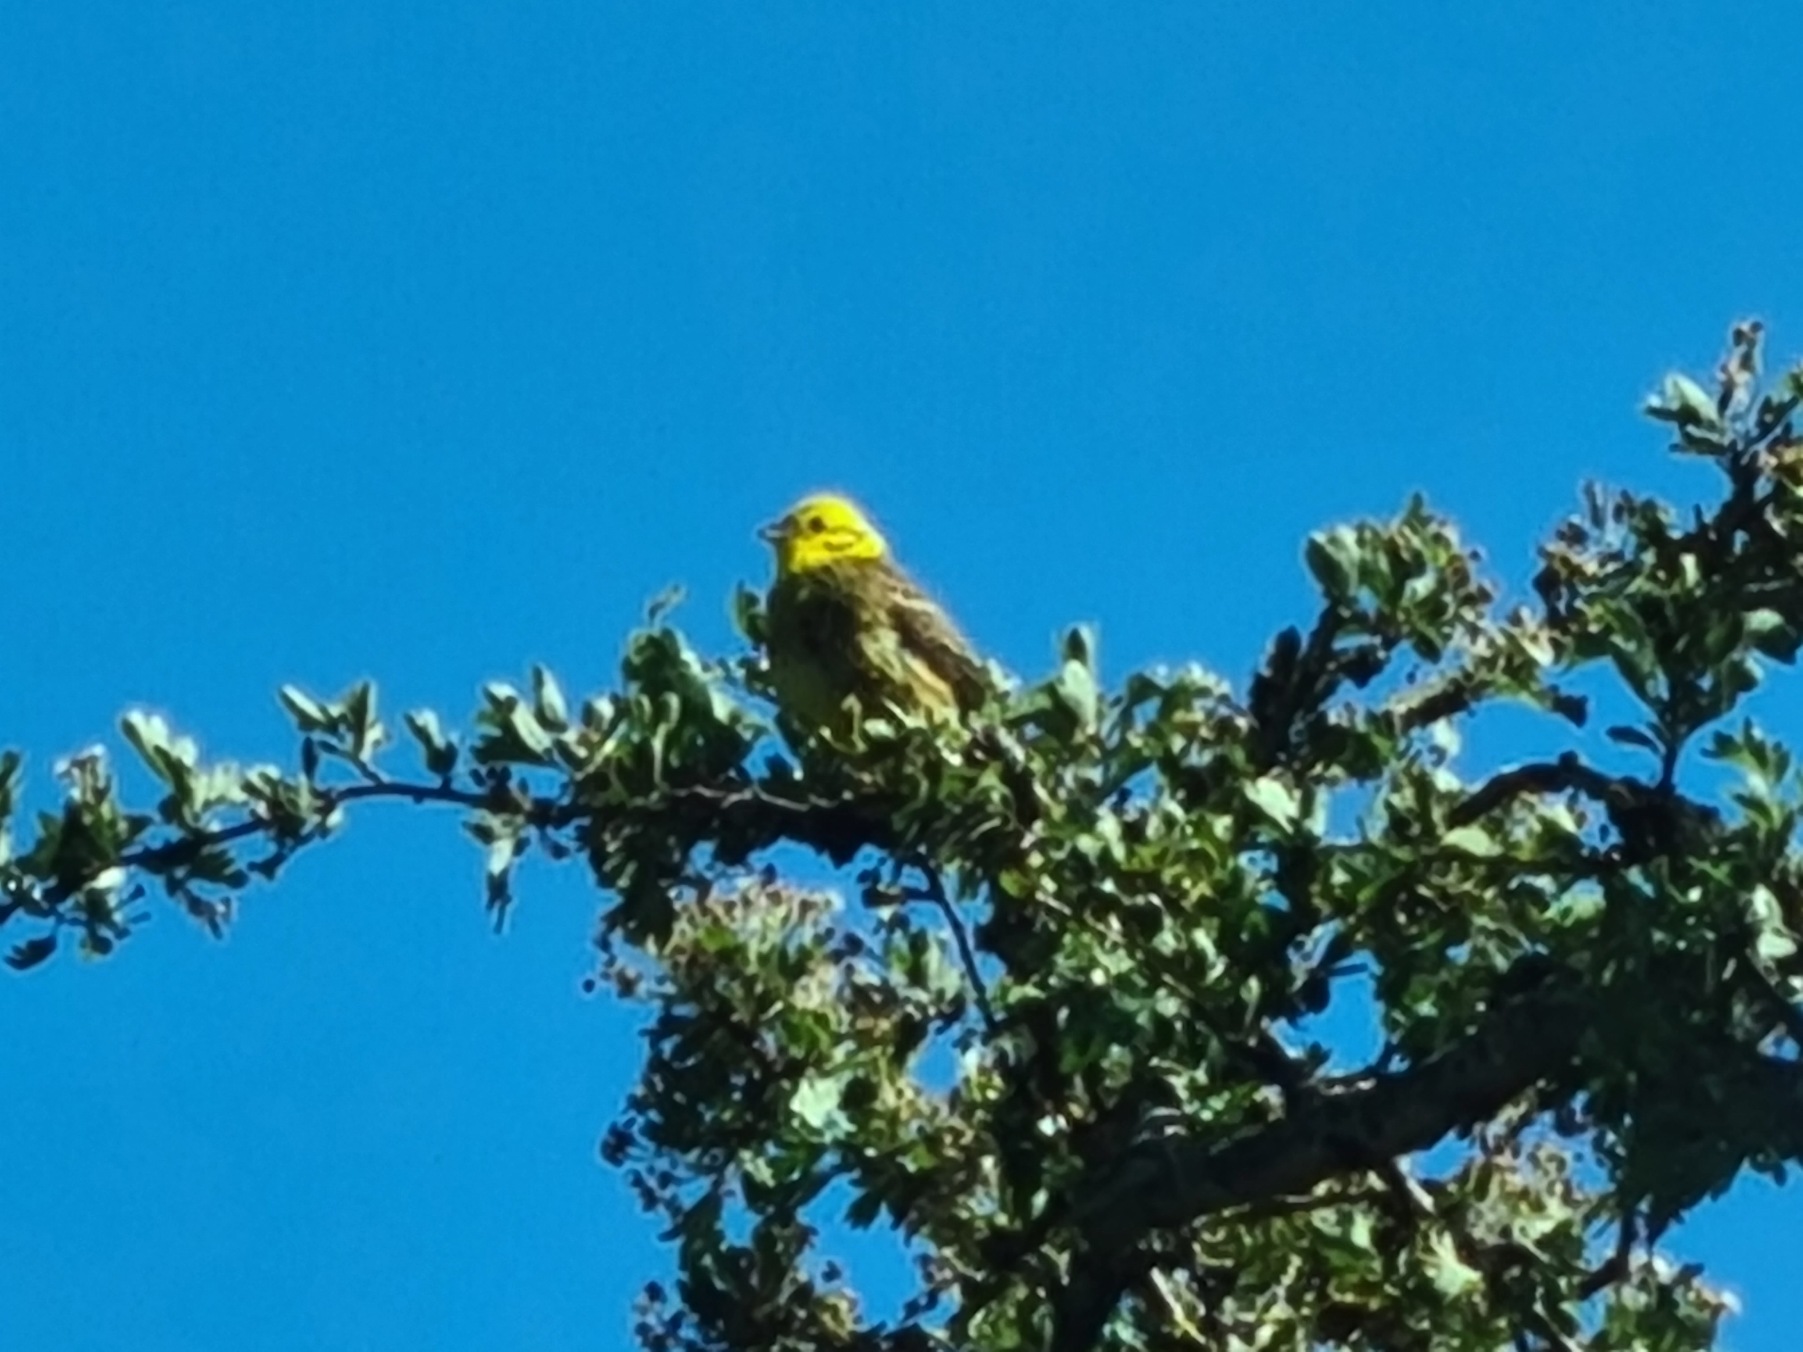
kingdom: Animalia
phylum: Chordata
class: Aves
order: Passeriformes
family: Emberizidae
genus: Emberiza
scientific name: Emberiza citrinella
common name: Gulspurv
